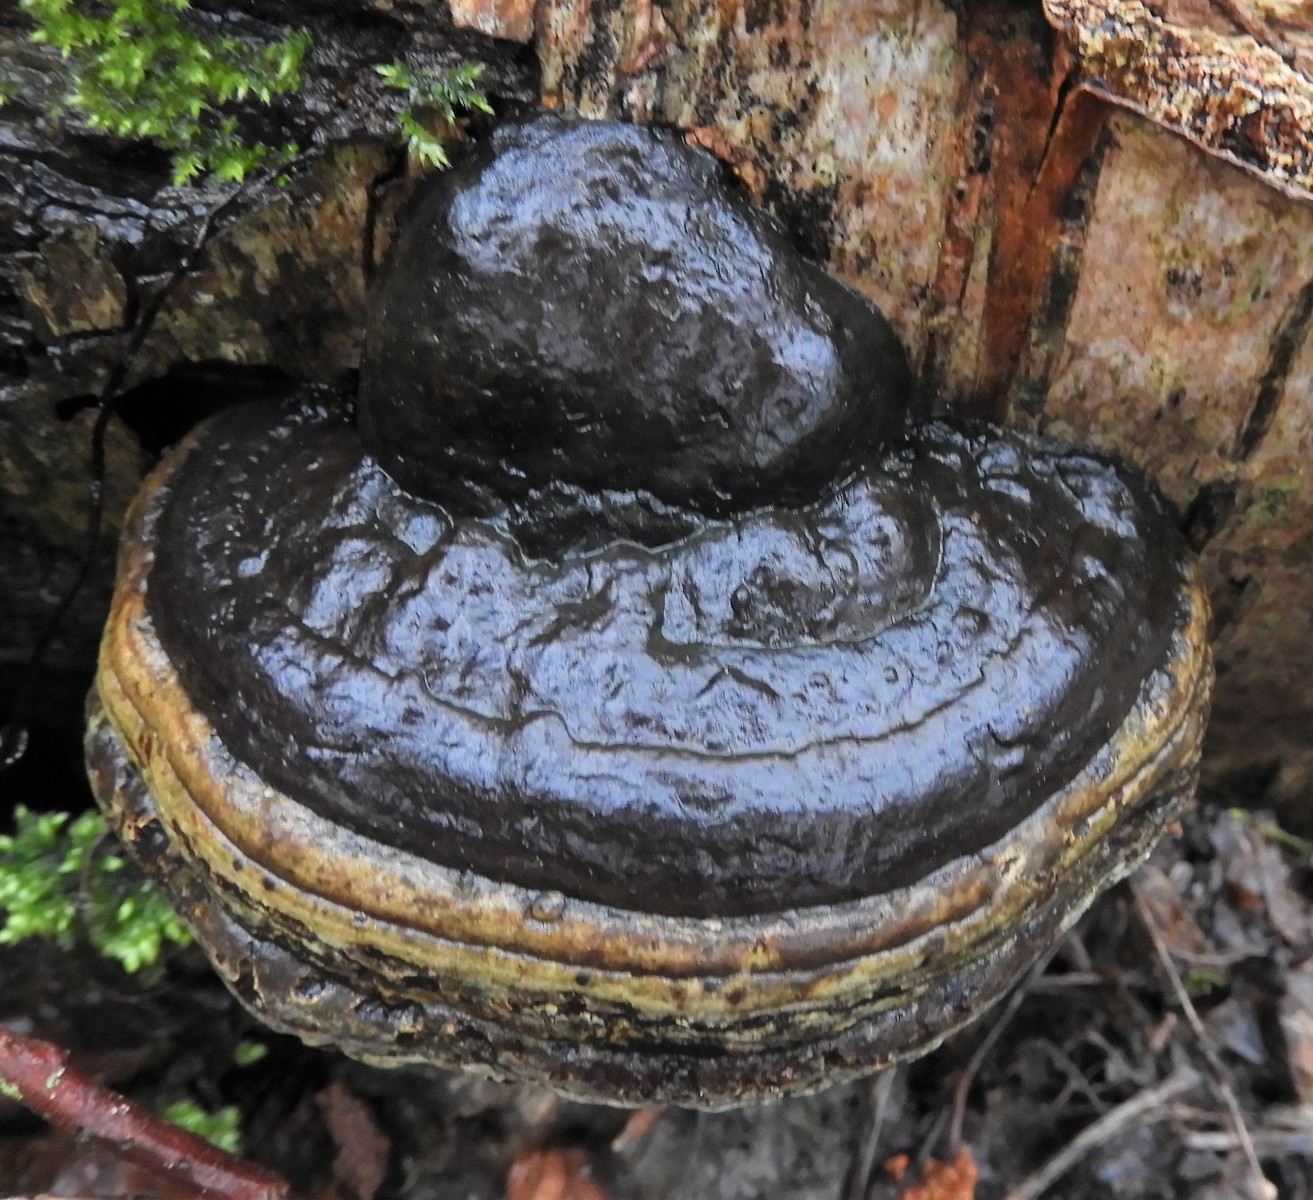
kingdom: Fungi
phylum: Basidiomycota
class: Agaricomycetes
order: Polyporales
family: Polyporaceae
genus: Fomes
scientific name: Fomes fomentarius
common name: tøndersvamp
